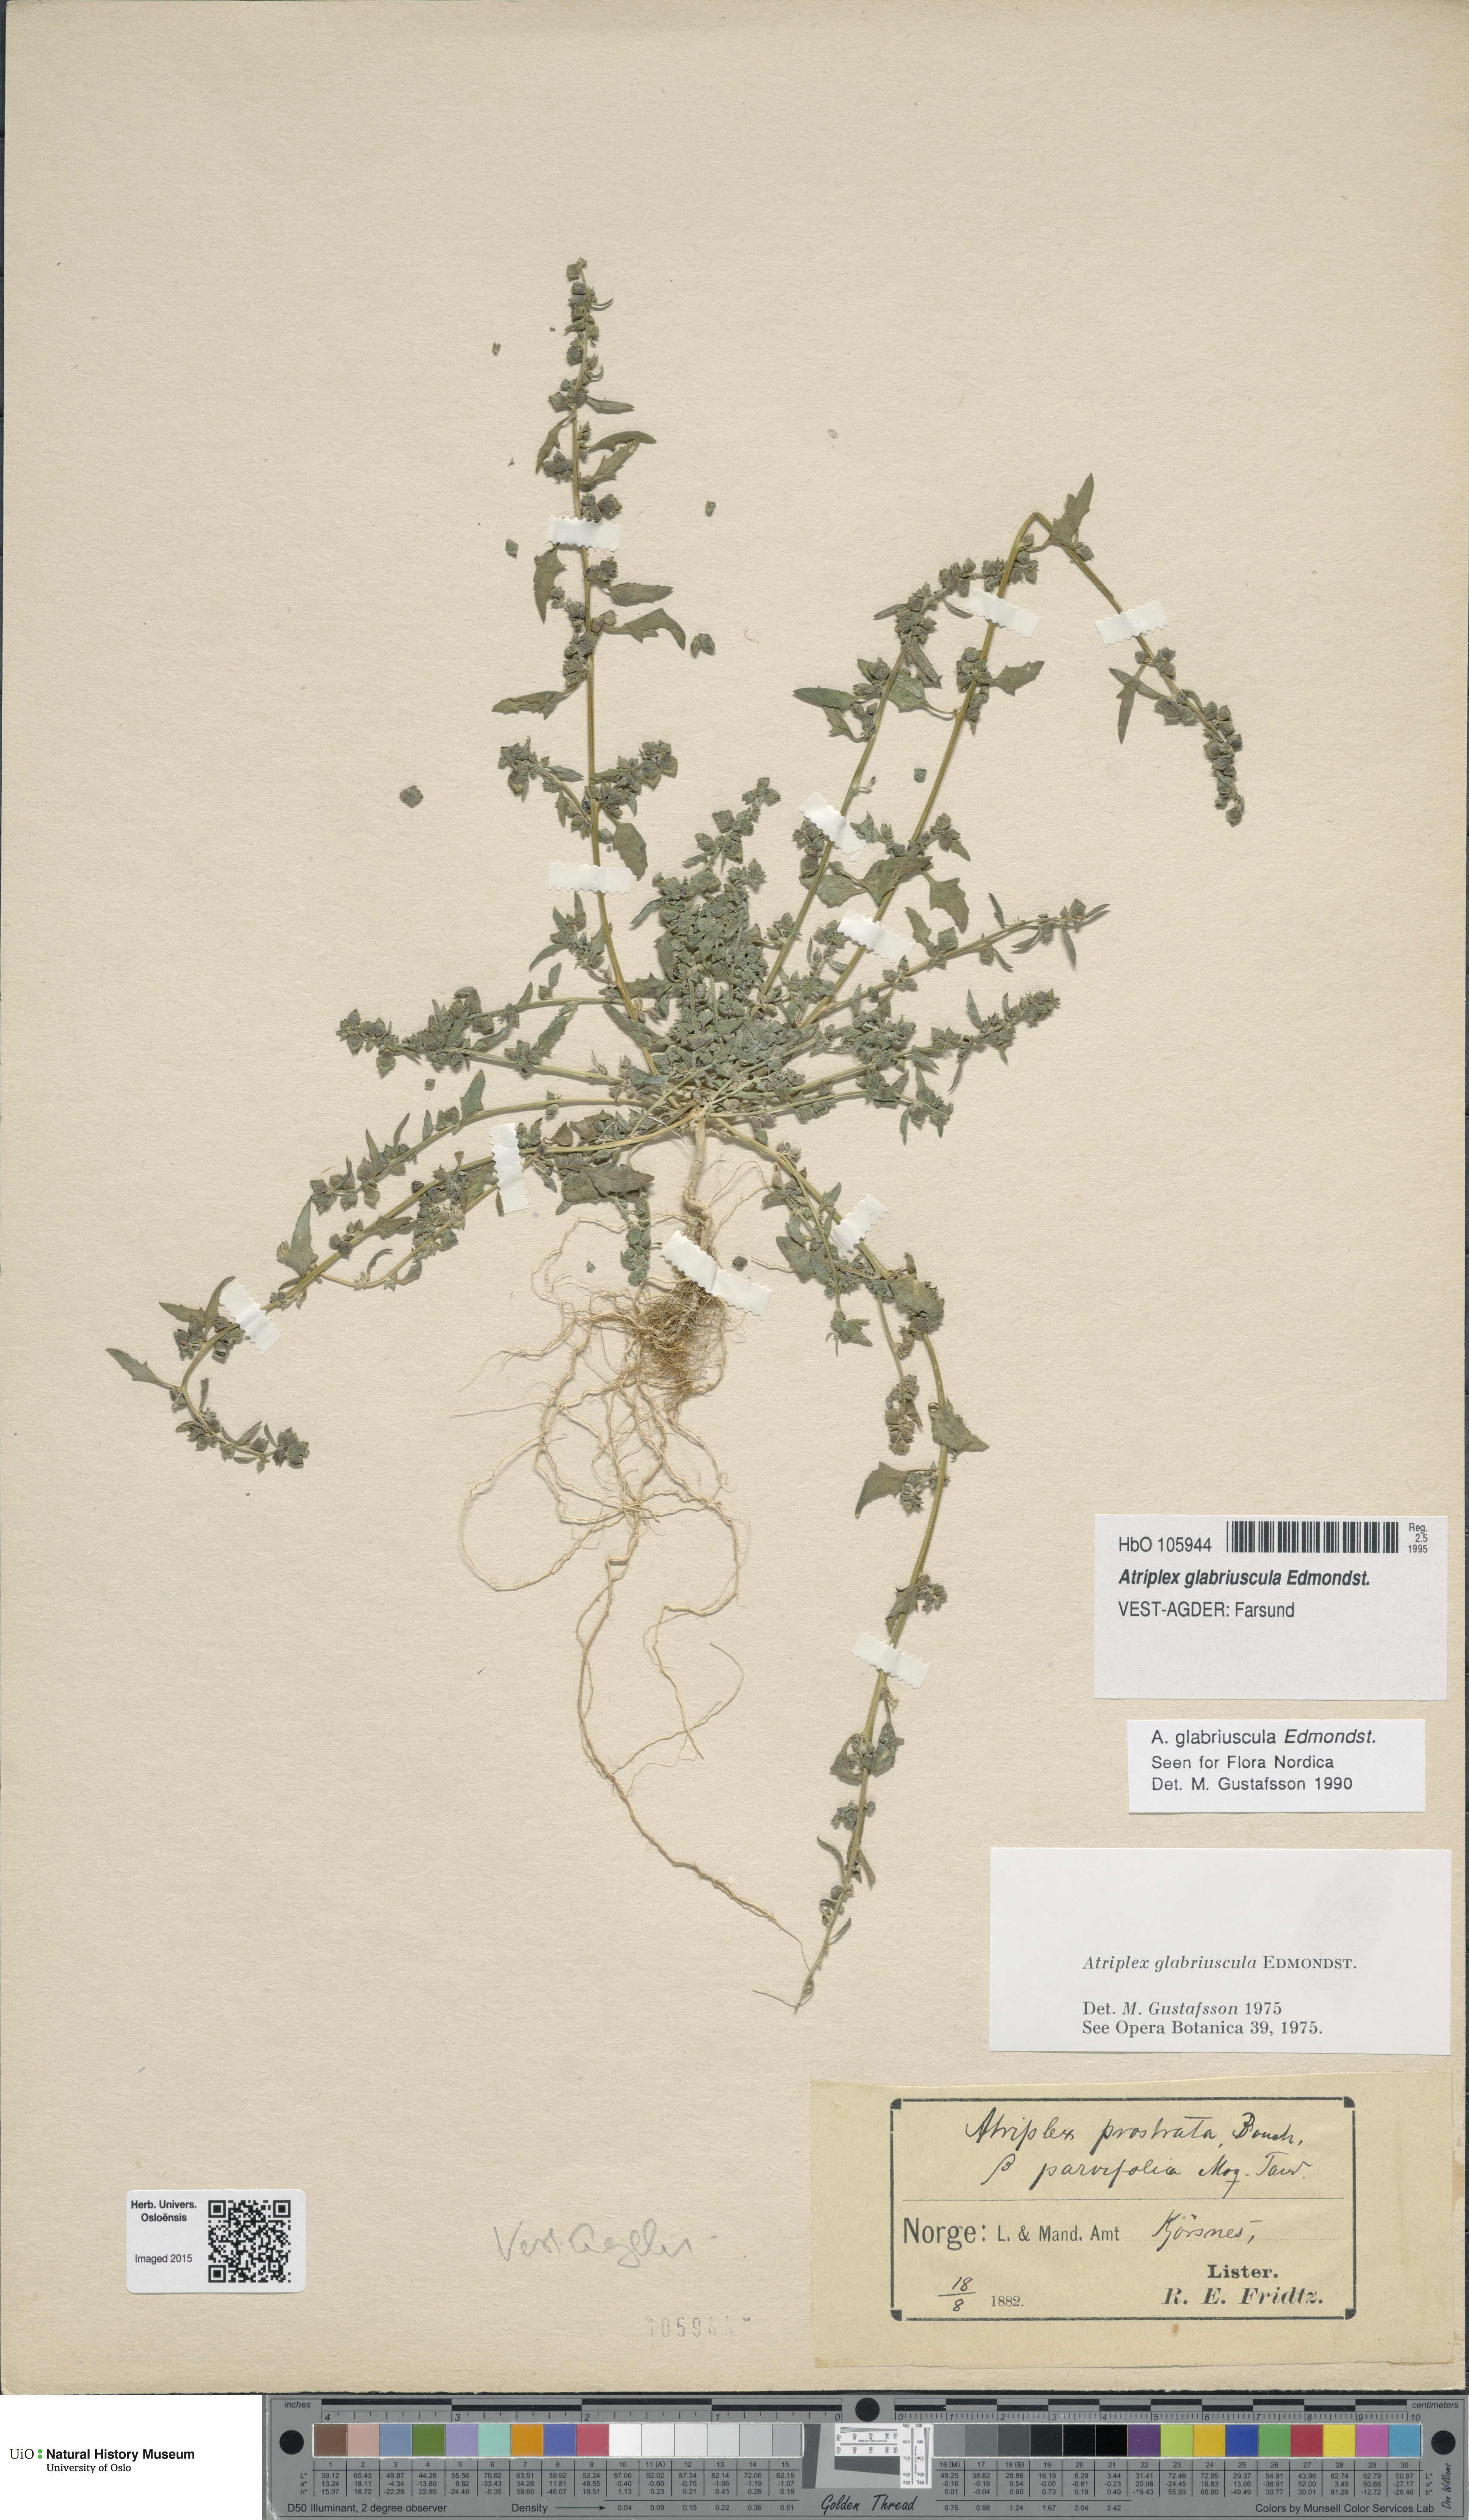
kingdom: Plantae
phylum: Tracheophyta
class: Magnoliopsida
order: Caryophyllales
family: Amaranthaceae
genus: Atriplex
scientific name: Atriplex glabriuscula
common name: Babington's orache
